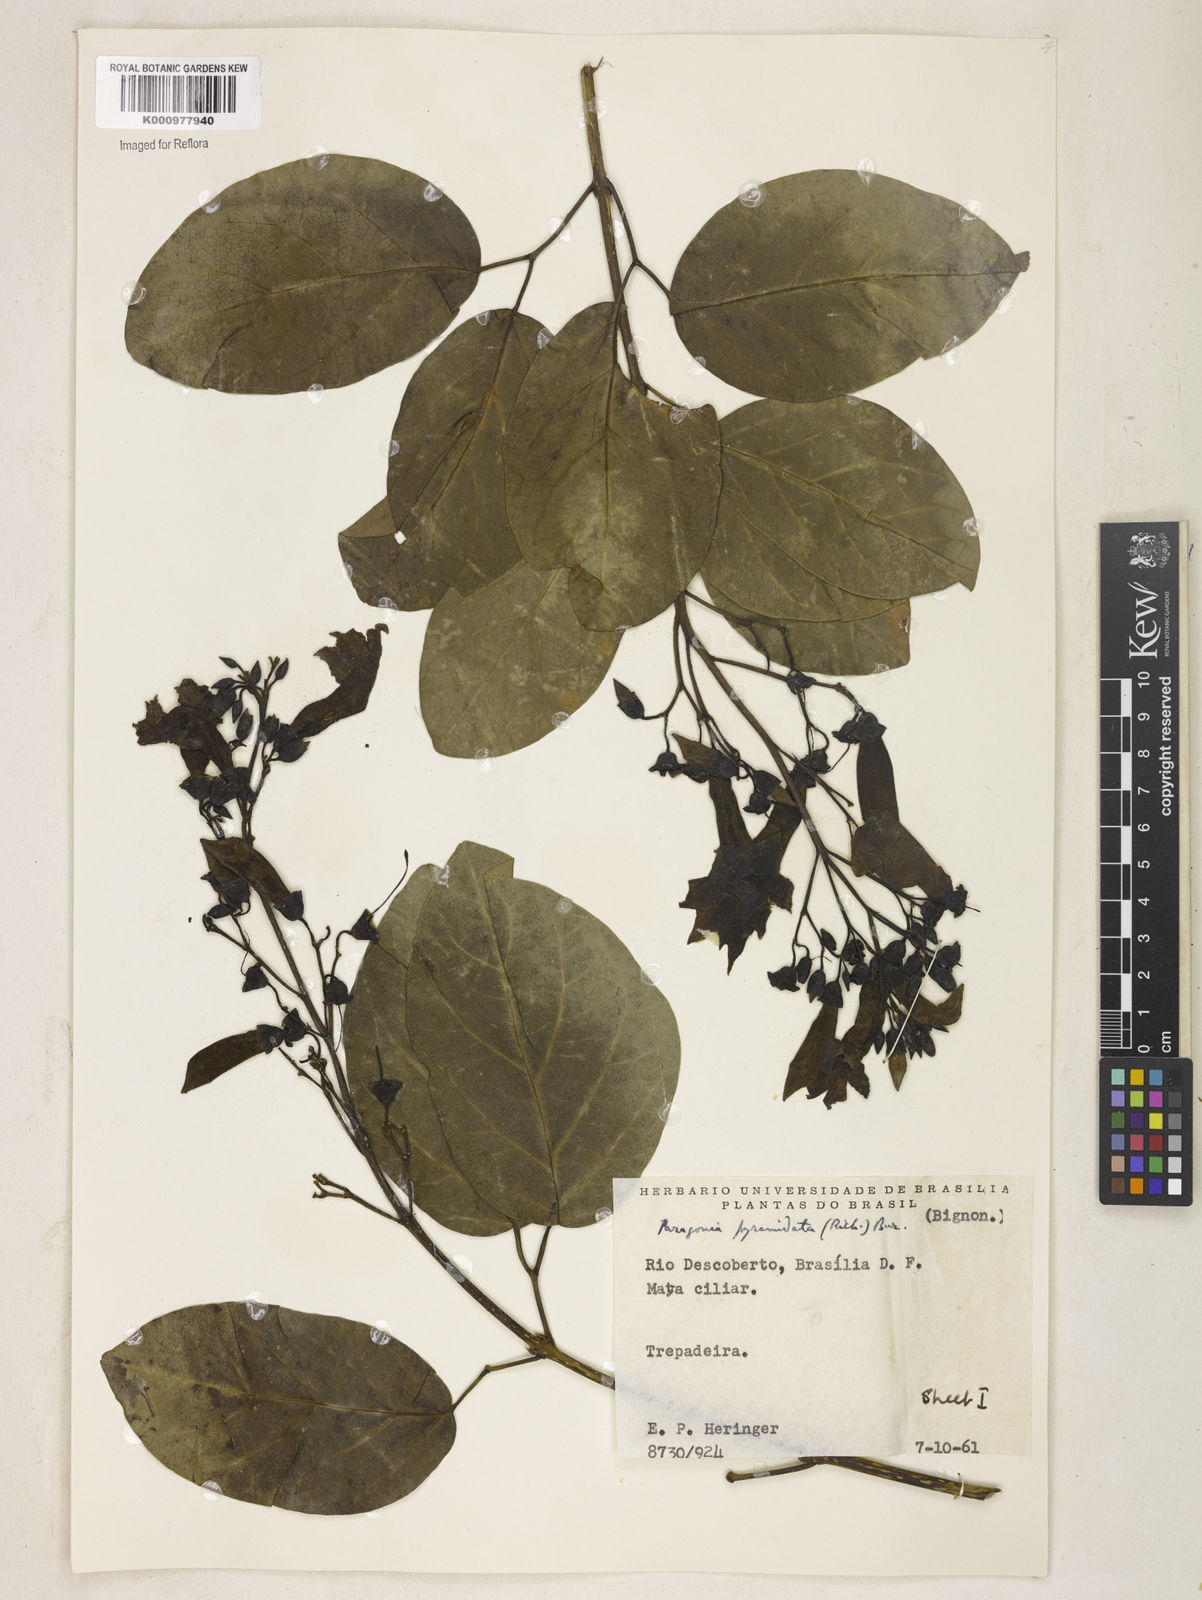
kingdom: Plantae
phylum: Tracheophyta
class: Magnoliopsida
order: Lamiales
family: Bignoniaceae
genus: Tanaecium
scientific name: Tanaecium pyramidatum
